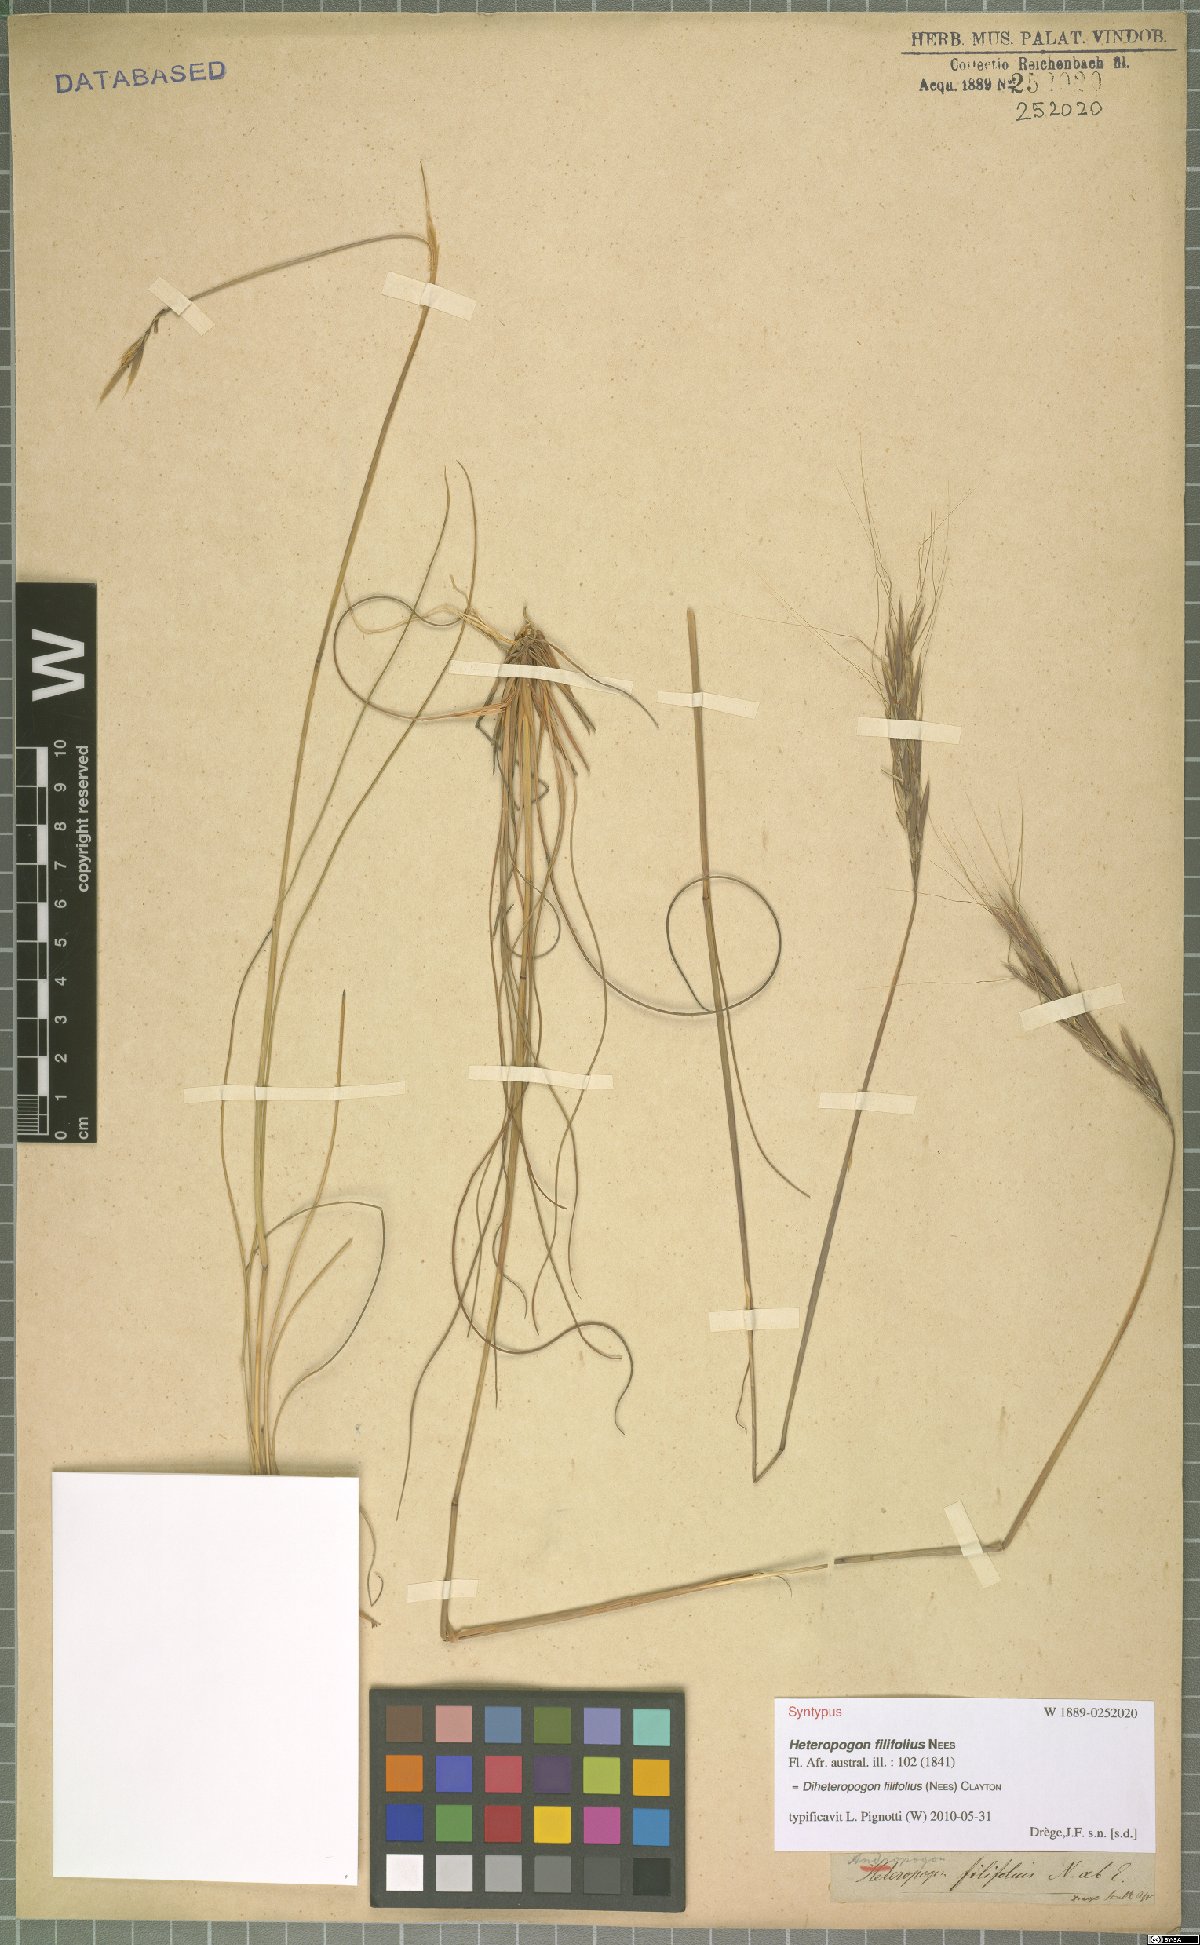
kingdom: Plantae
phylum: Tracheophyta
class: Liliopsida
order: Poales
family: Poaceae
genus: Diheteropogon
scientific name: Diheteropogon filifolius
